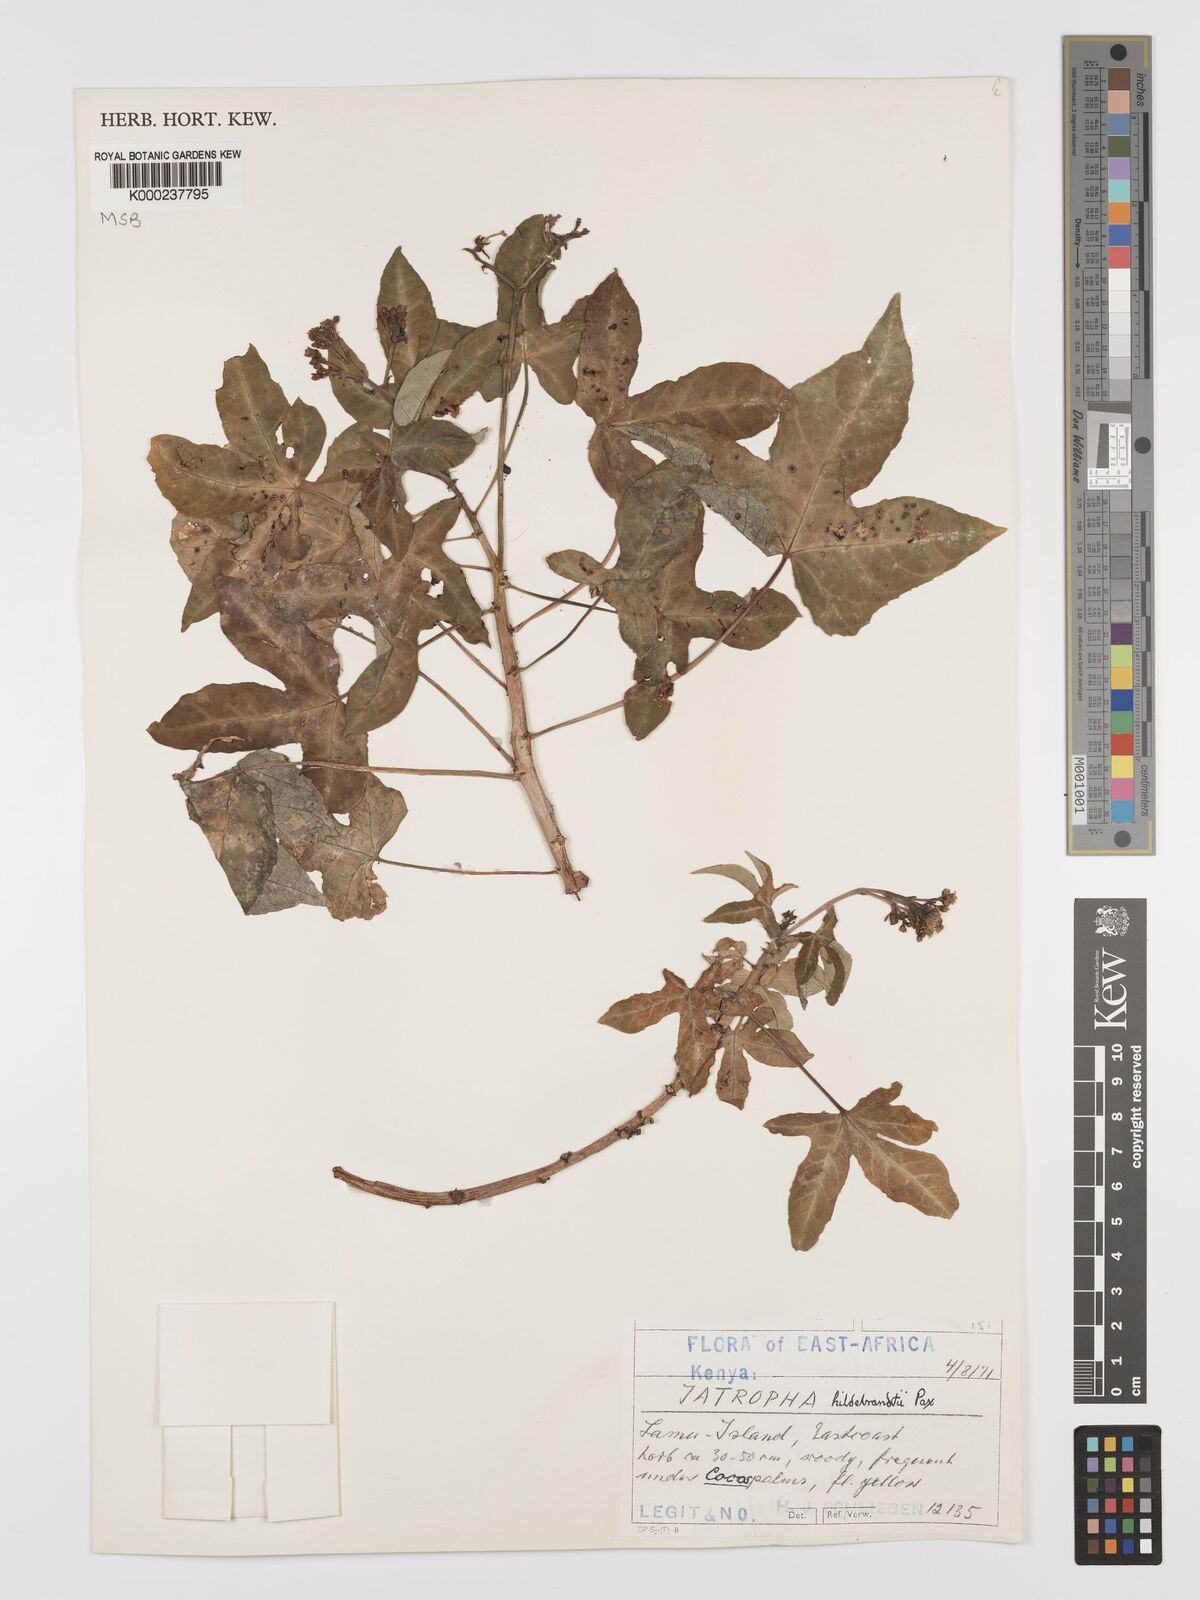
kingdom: Plantae
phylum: Tracheophyta
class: Magnoliopsida
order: Malpighiales
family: Euphorbiaceae
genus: Jatropha
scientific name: Jatropha hildebrandtii
